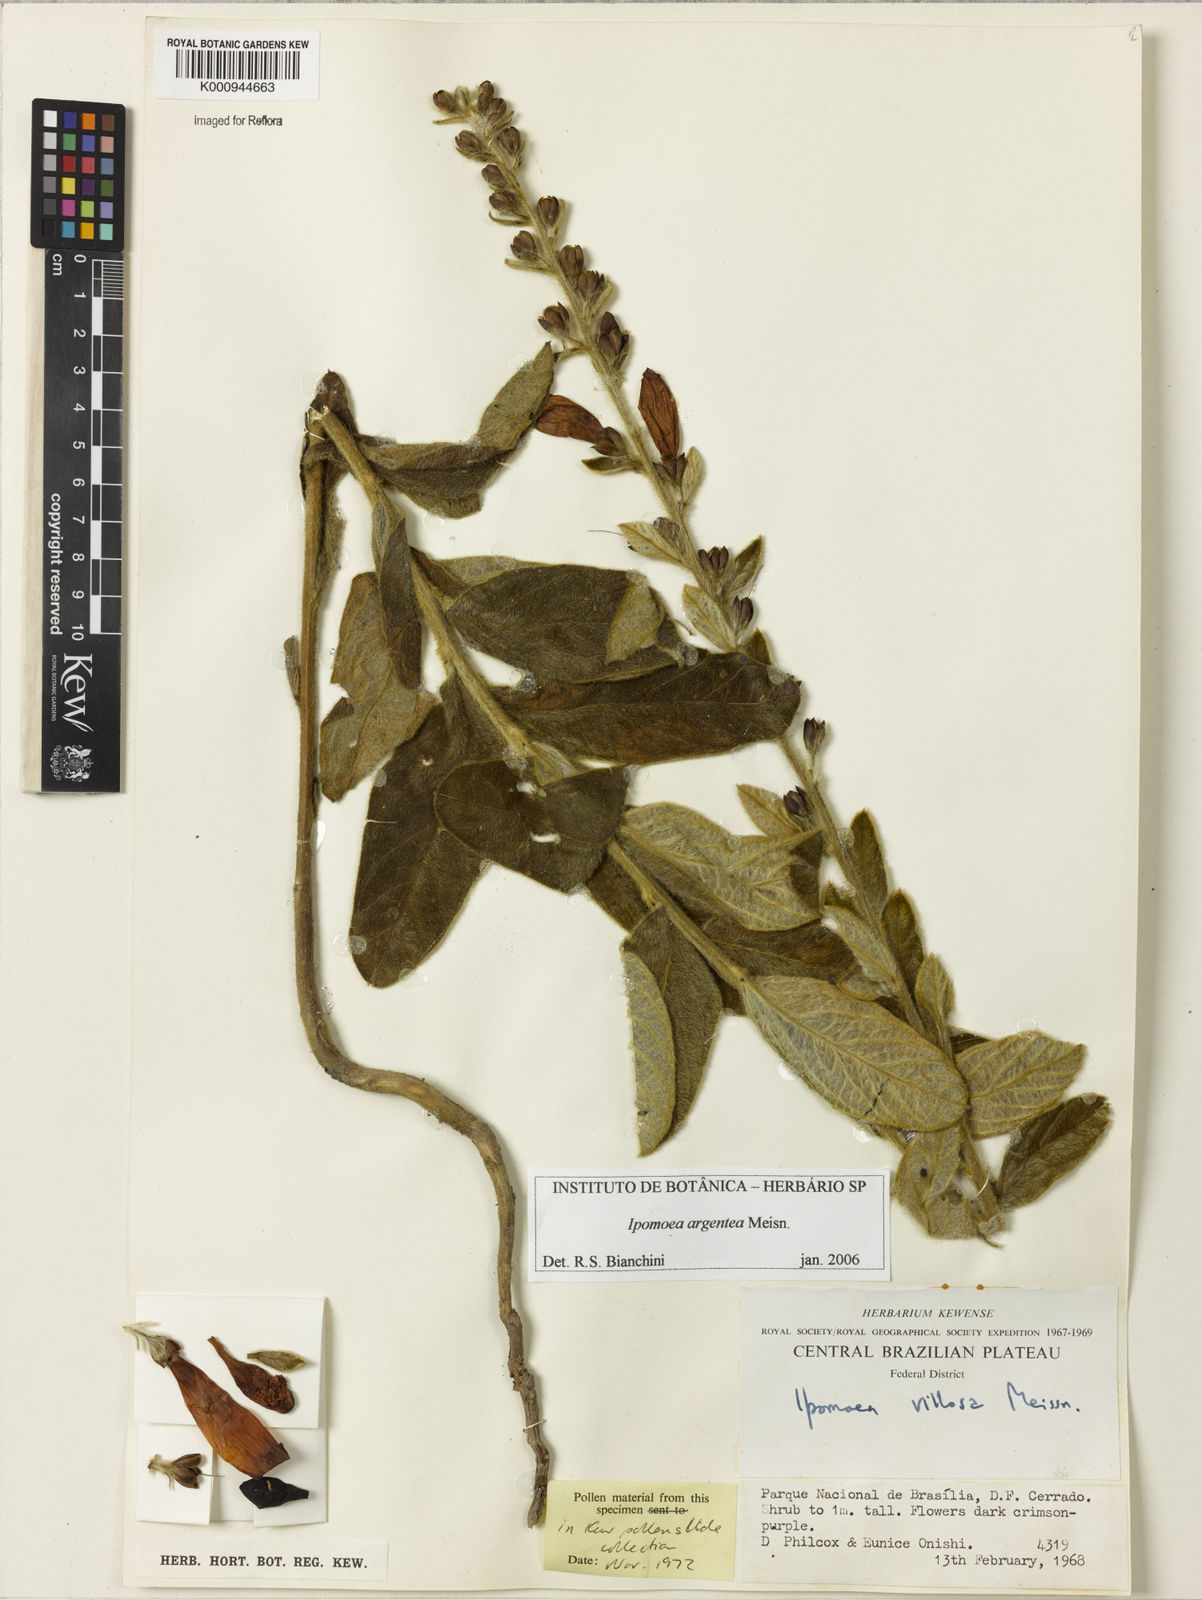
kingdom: Plantae
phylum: Tracheophyta
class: Magnoliopsida
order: Solanales
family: Convolvulaceae
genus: Ipomoea
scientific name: Ipomoea purpurea
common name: Common morning-glory
